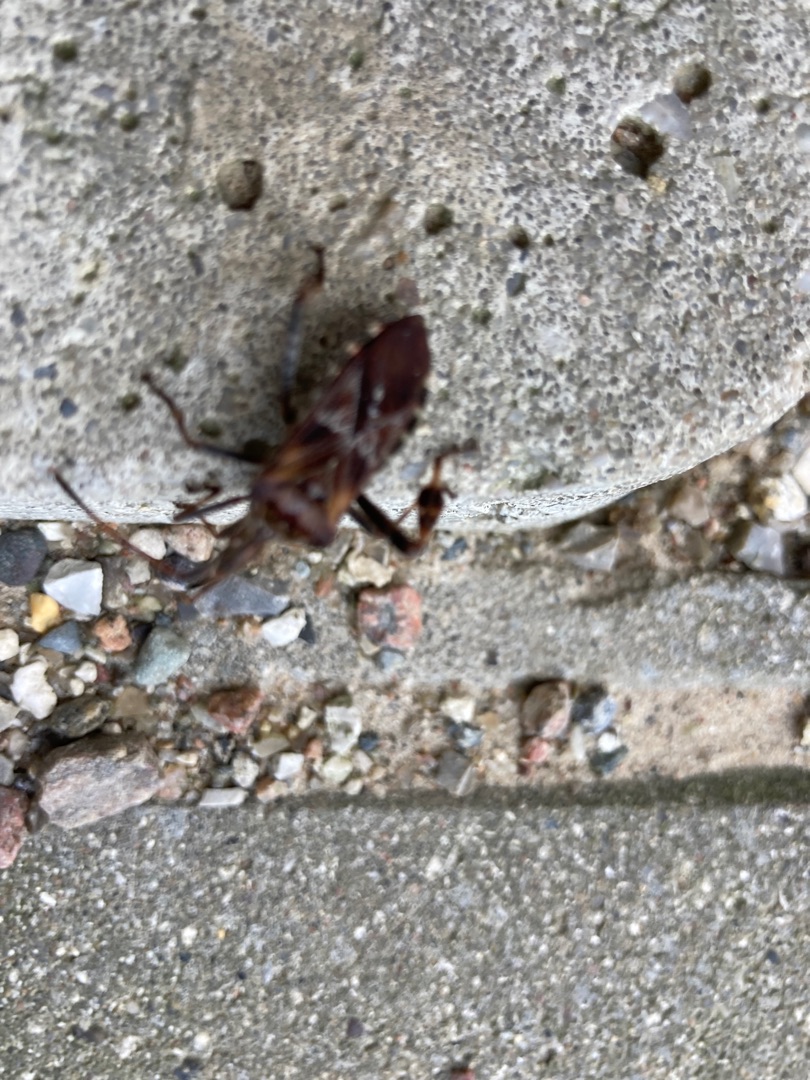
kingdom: Animalia
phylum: Arthropoda
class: Insecta
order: Hemiptera
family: Coreidae
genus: Leptoglossus
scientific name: Leptoglossus occidentalis
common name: Amerikansk fyrretæge
